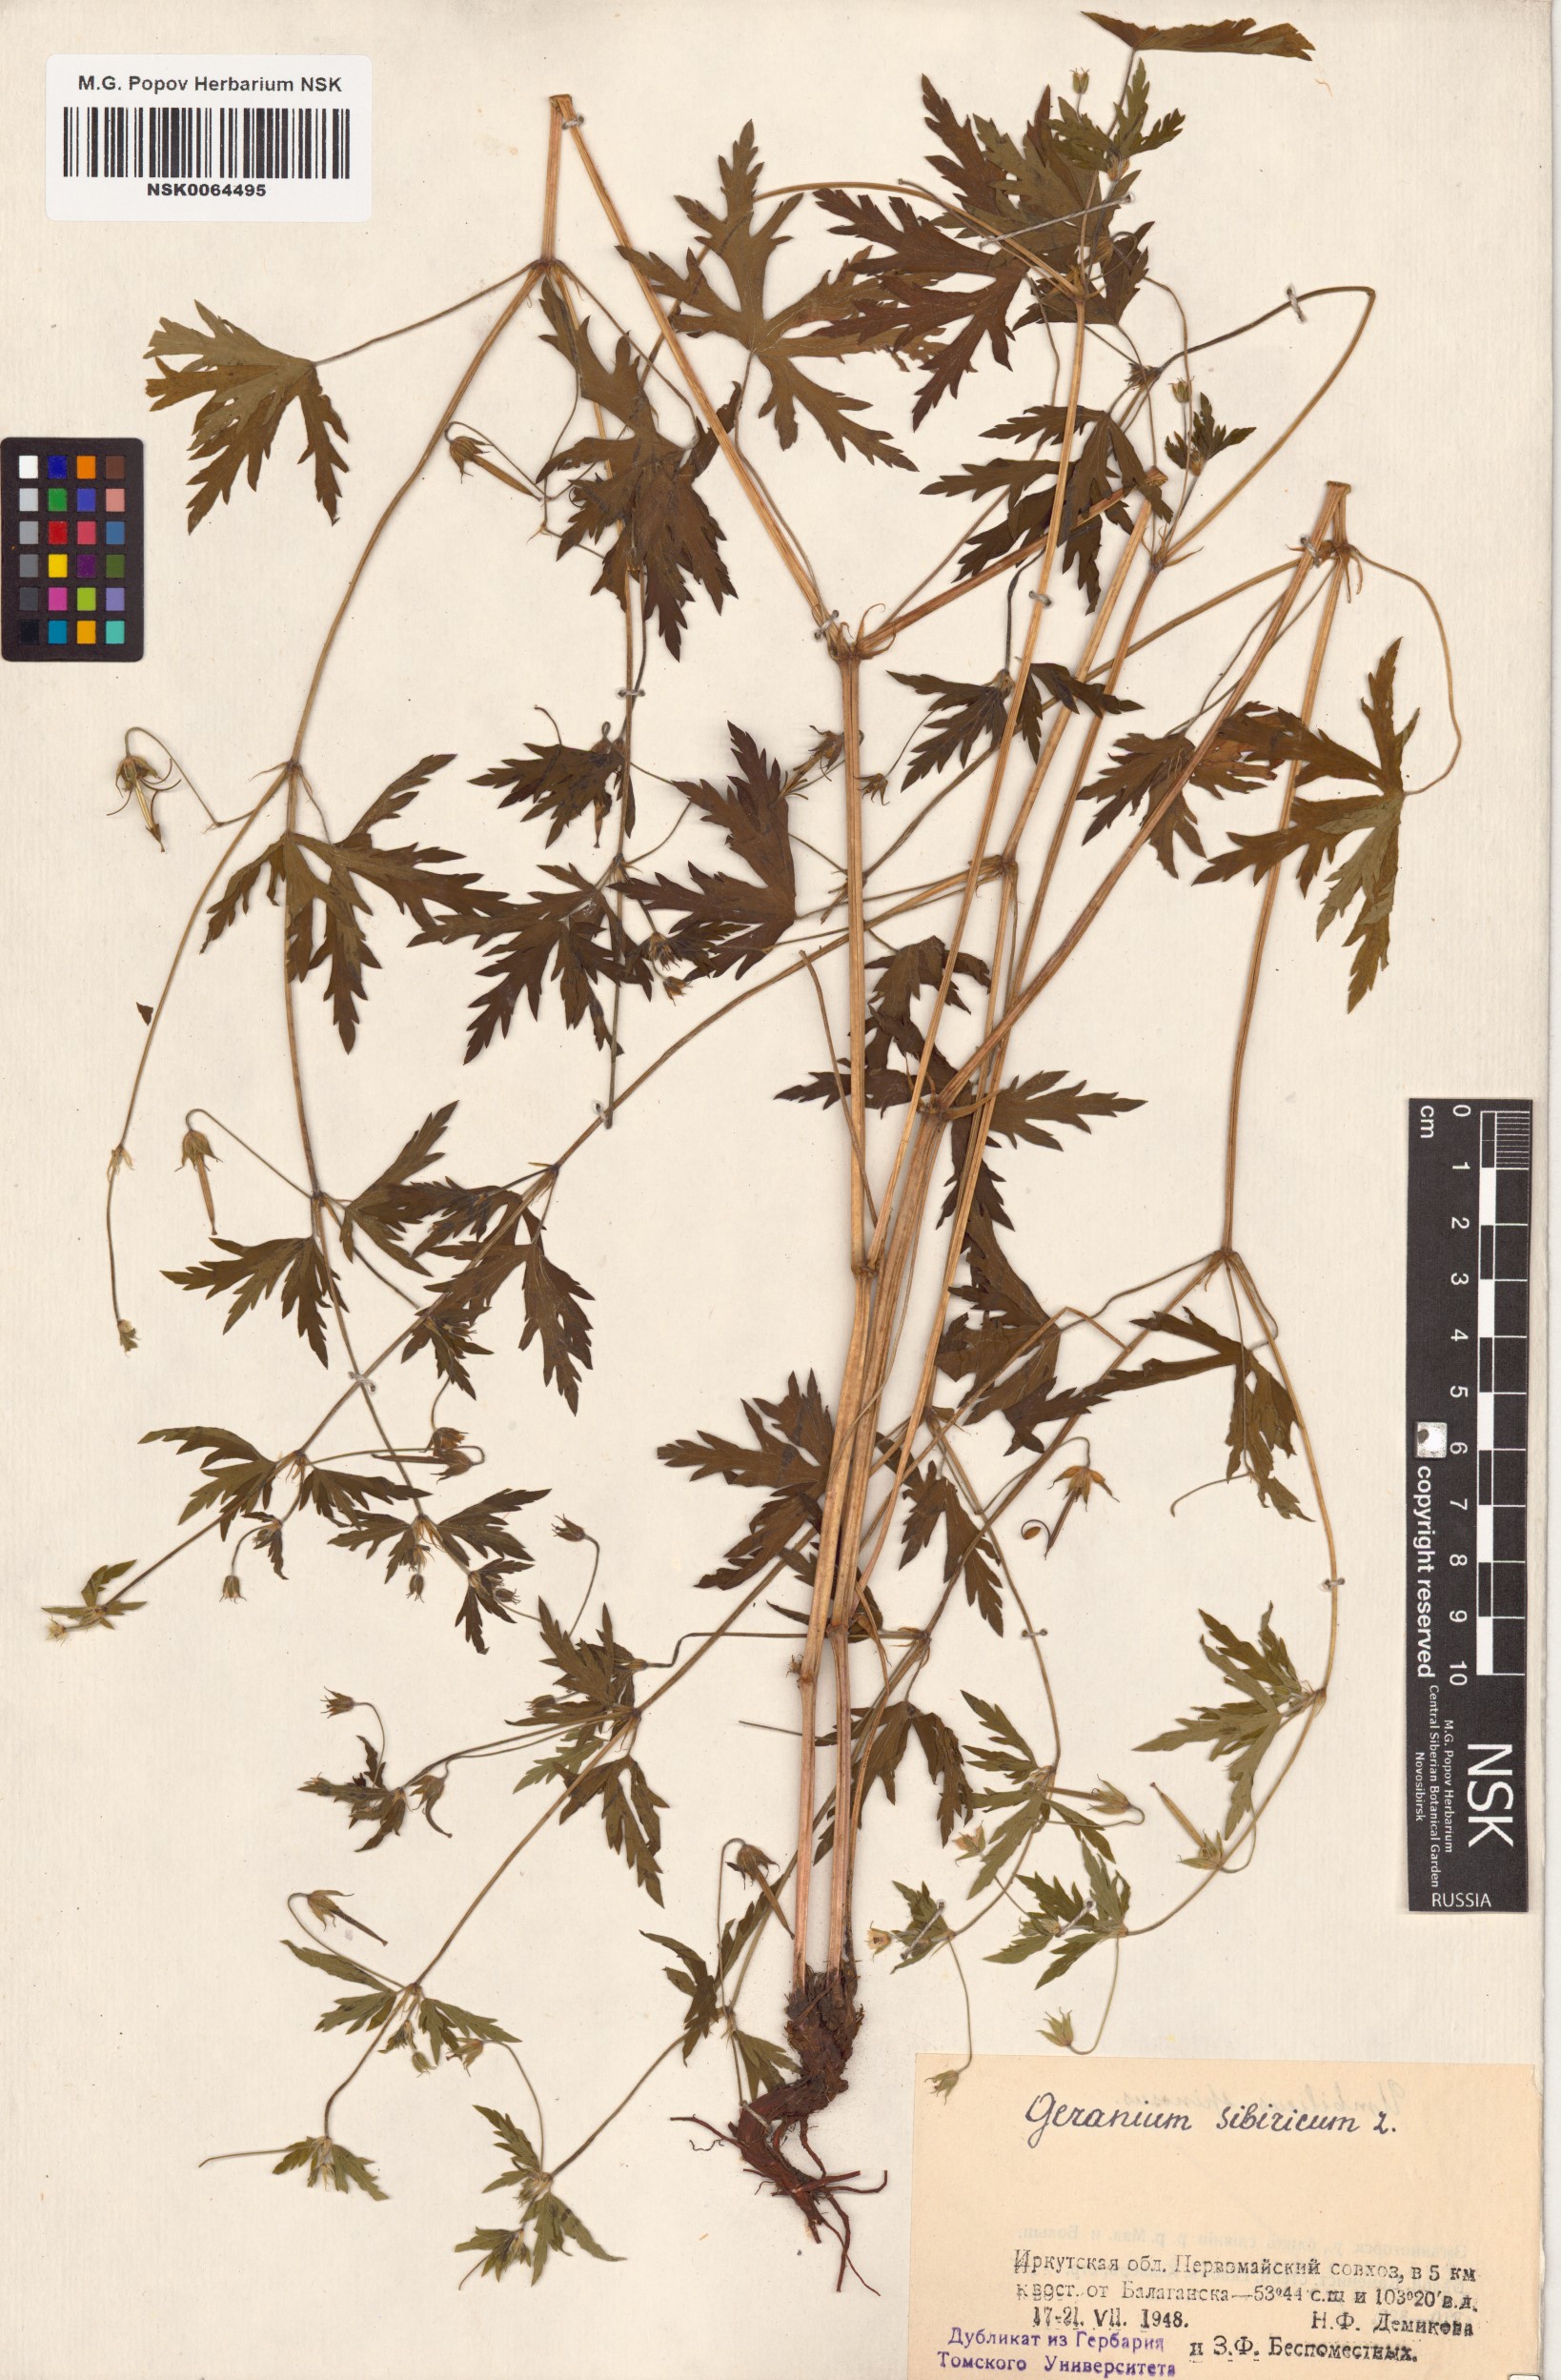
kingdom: Plantae
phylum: Tracheophyta
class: Magnoliopsida
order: Geraniales
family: Geraniaceae
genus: Geranium
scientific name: Geranium sibiricum
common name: Siberian crane's-bill
